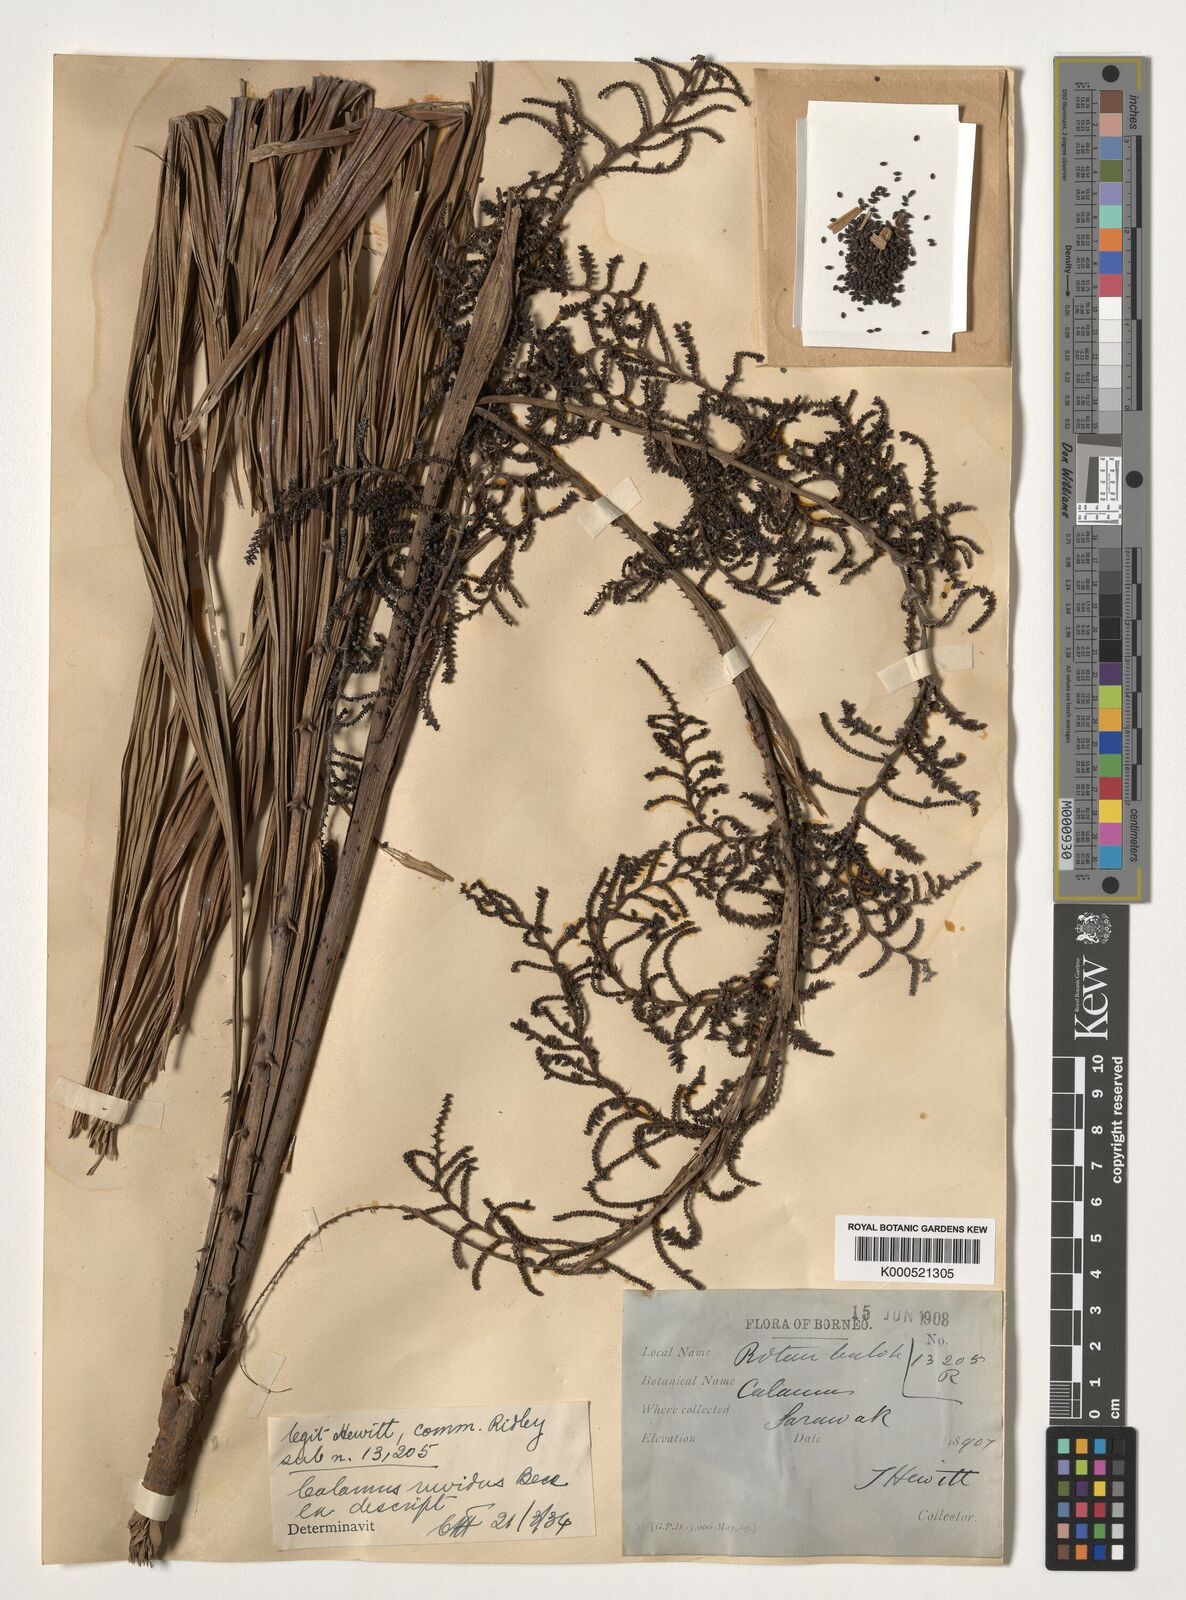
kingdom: Plantae
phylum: Tracheophyta
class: Liliopsida
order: Arecales
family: Arecaceae
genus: Calamus
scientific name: Calamus ruvidus
